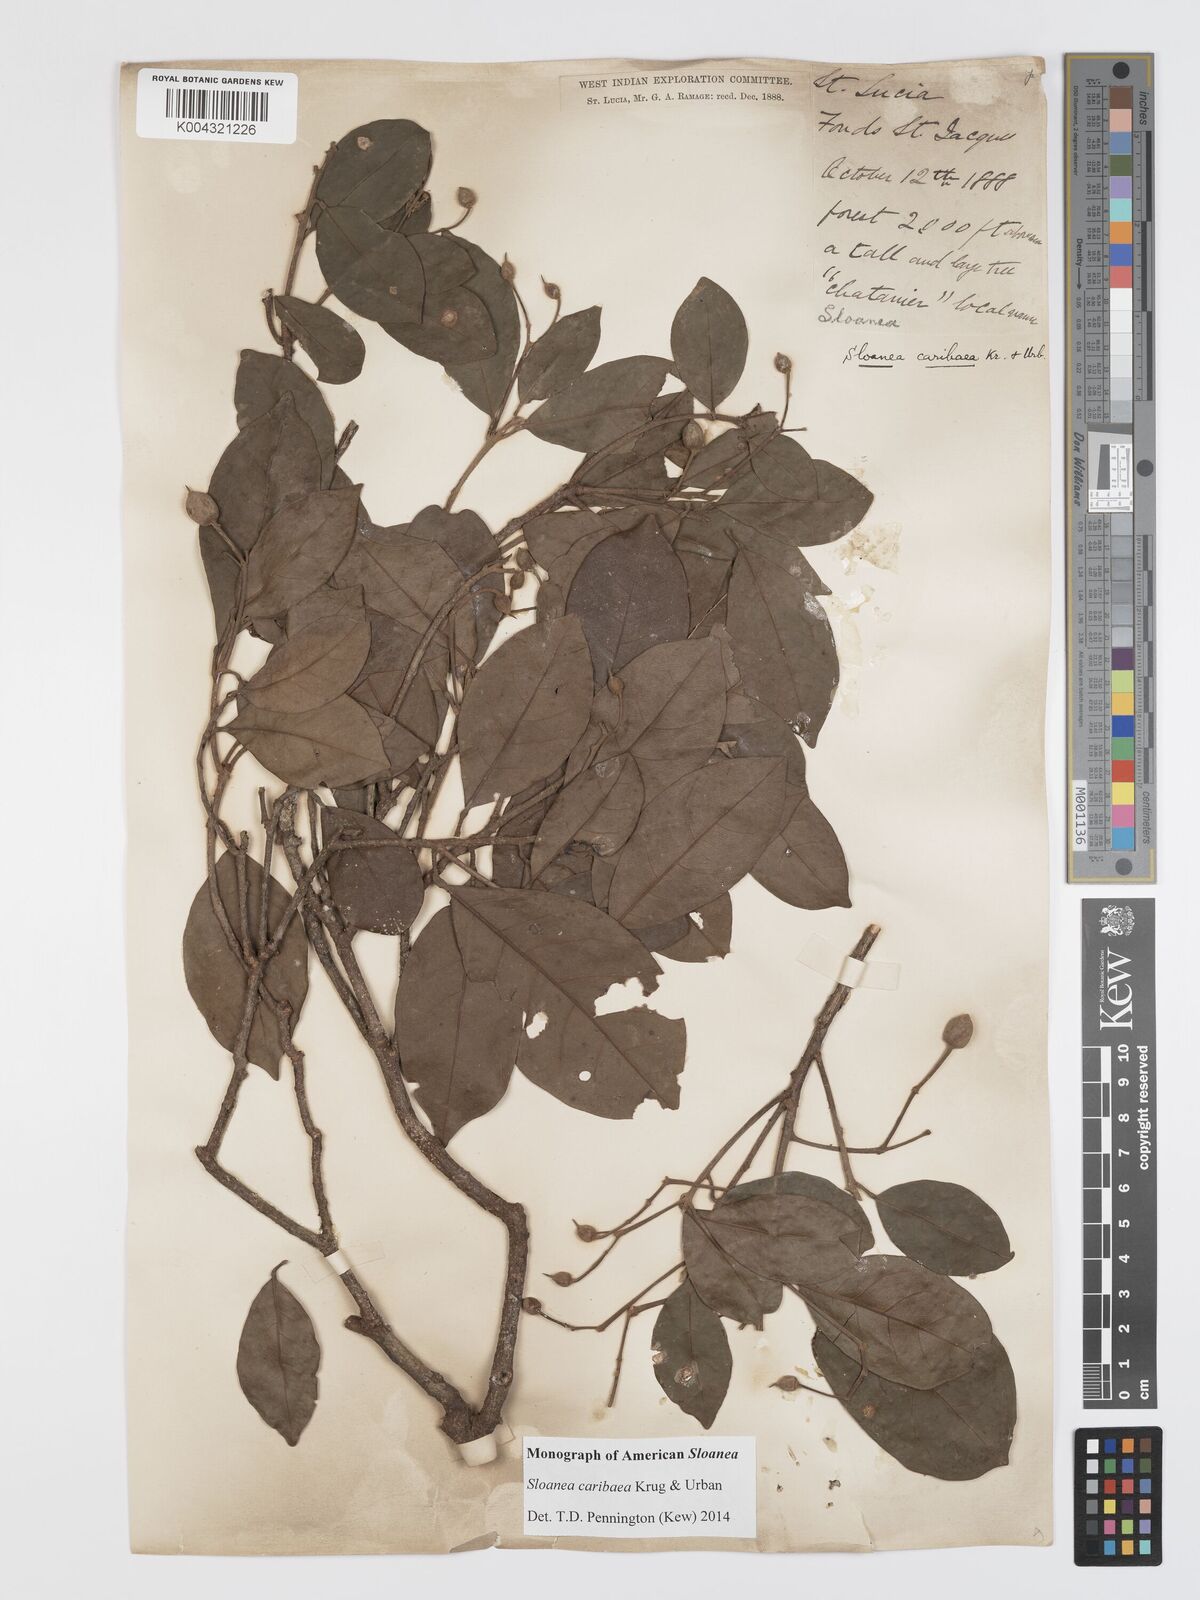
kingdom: Plantae
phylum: Tracheophyta
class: Magnoliopsida
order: Oxalidales
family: Elaeocarpaceae
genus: Sloanea
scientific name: Sloanea caribaea
